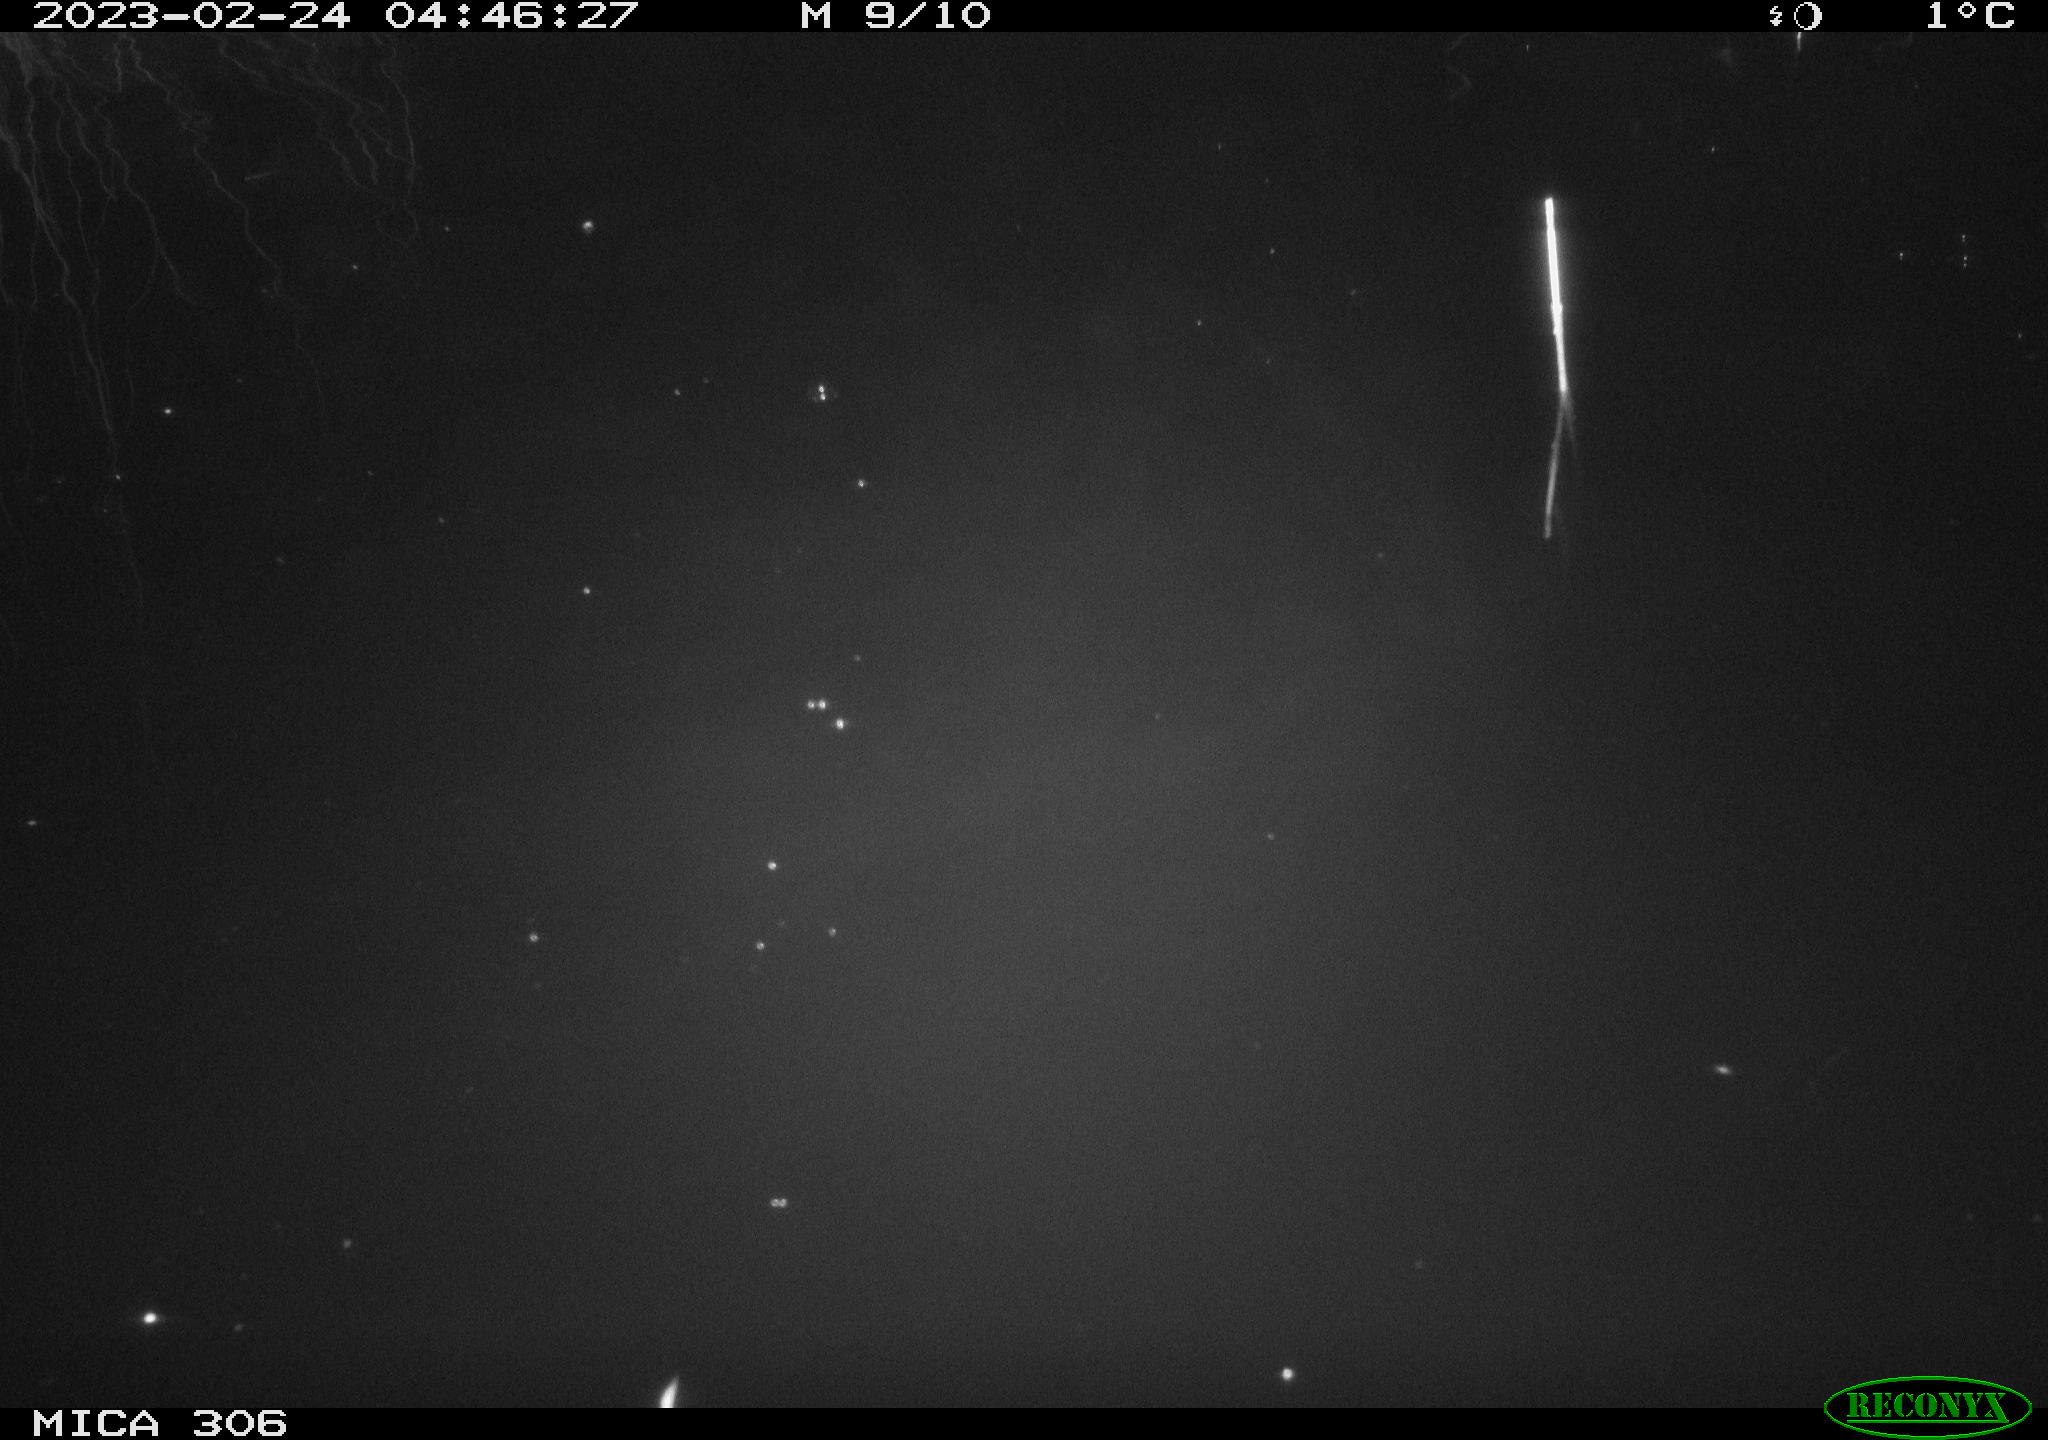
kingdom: Animalia
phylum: Chordata
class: Mammalia
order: Rodentia
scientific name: Rodentia
